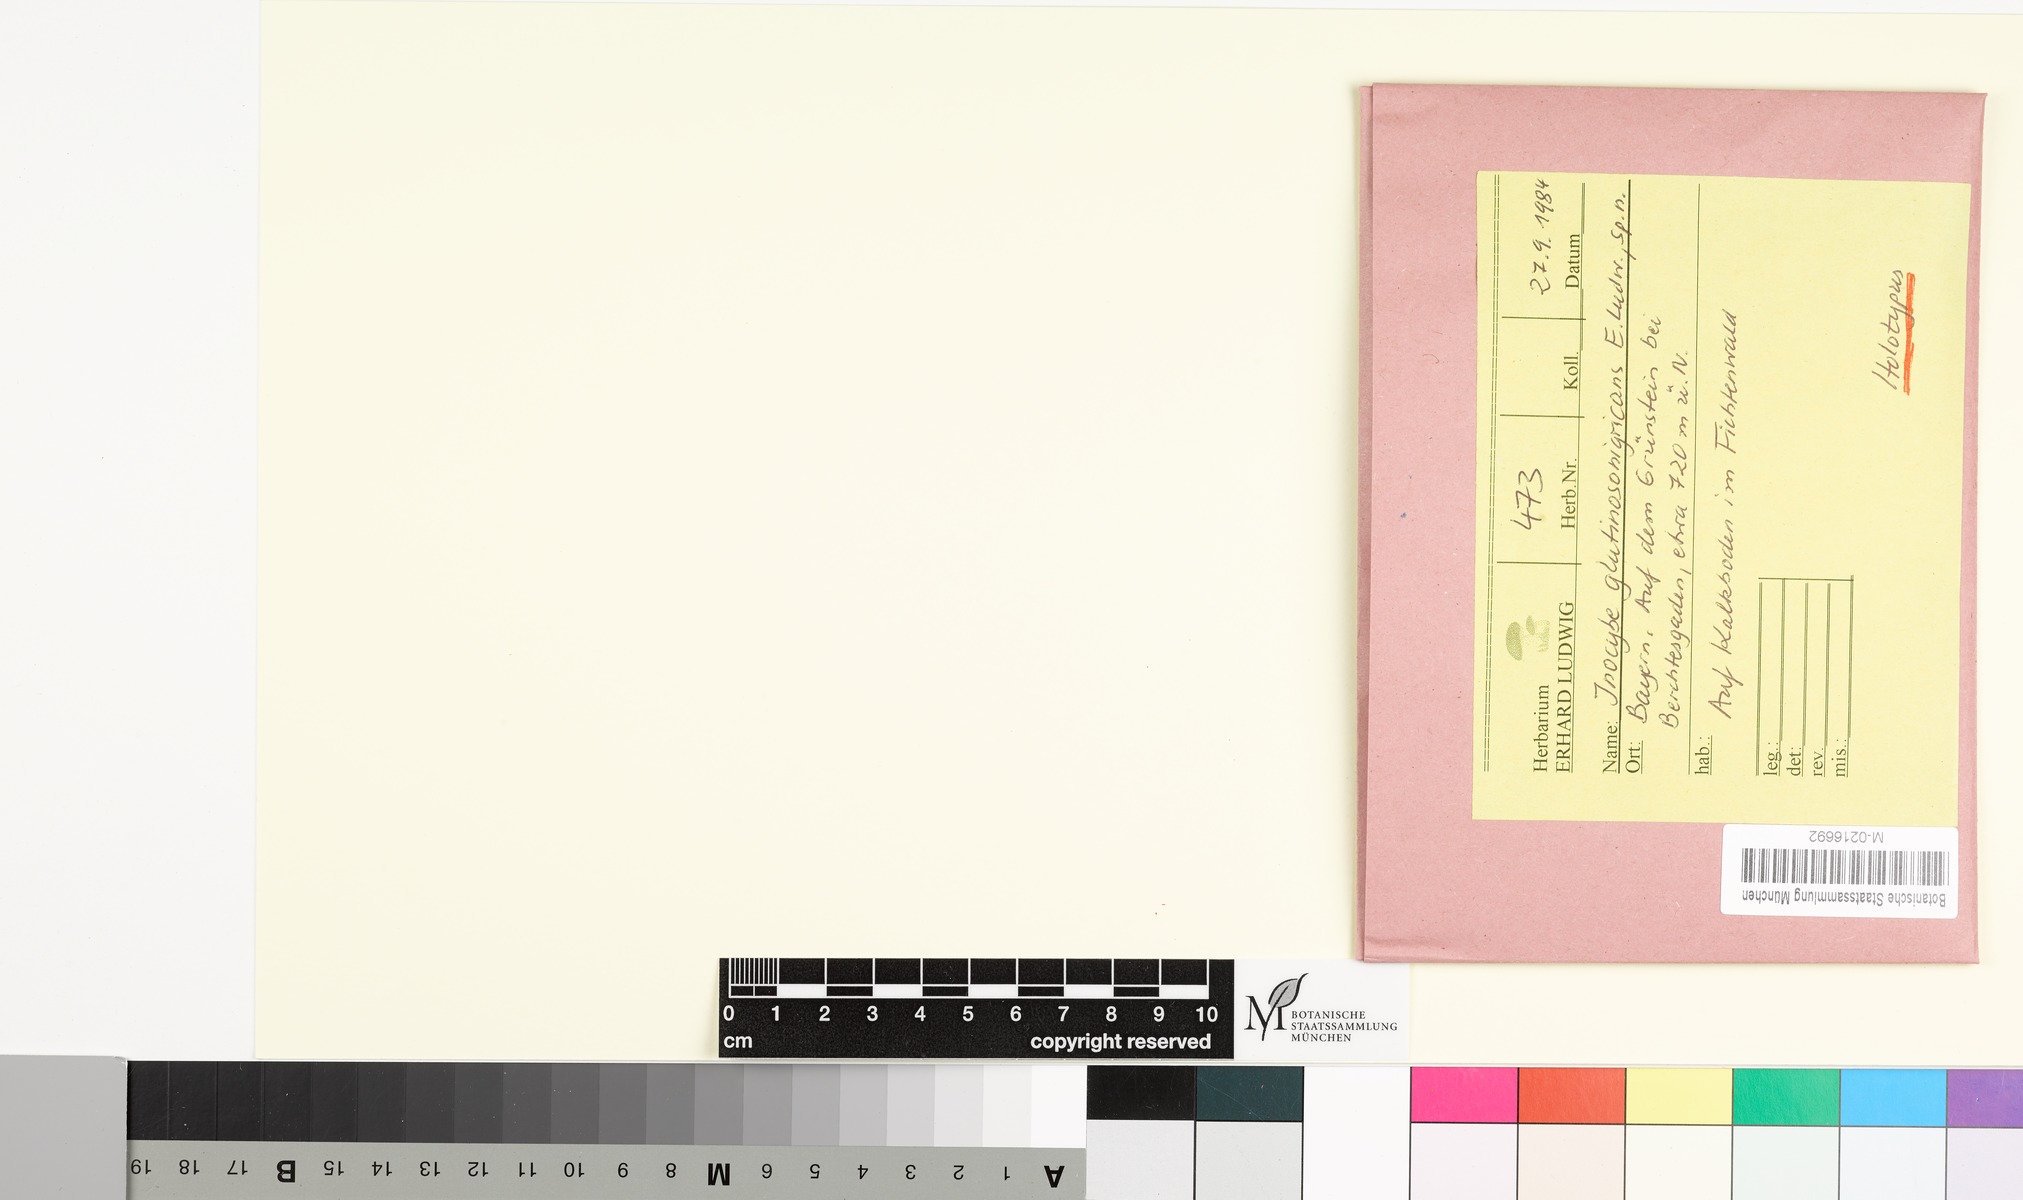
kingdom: Fungi
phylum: Basidiomycota
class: Agaricomycetes
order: Agaricales
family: Inocybaceae
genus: Inocybe
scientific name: Inocybe glutinosonigricans
